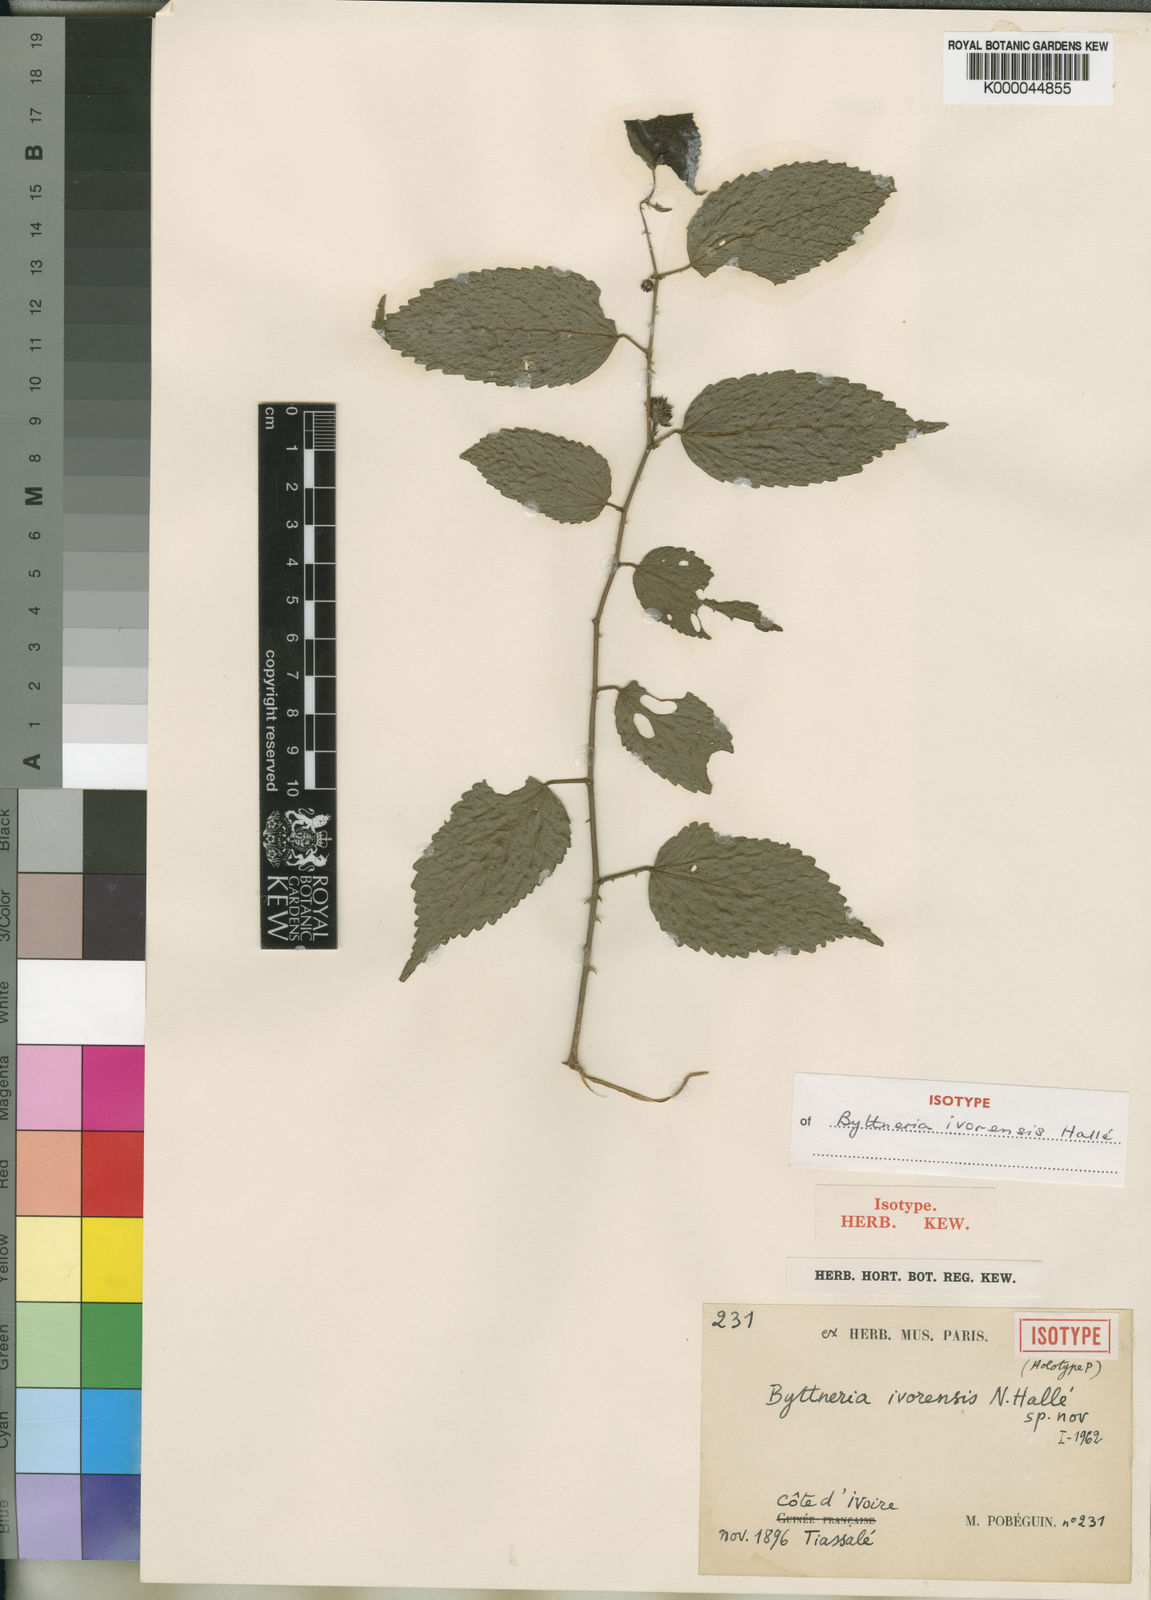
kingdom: Plantae
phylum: Tracheophyta
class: Magnoliopsida
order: Malvales
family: Malvaceae
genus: Byttneria
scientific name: Byttneria
